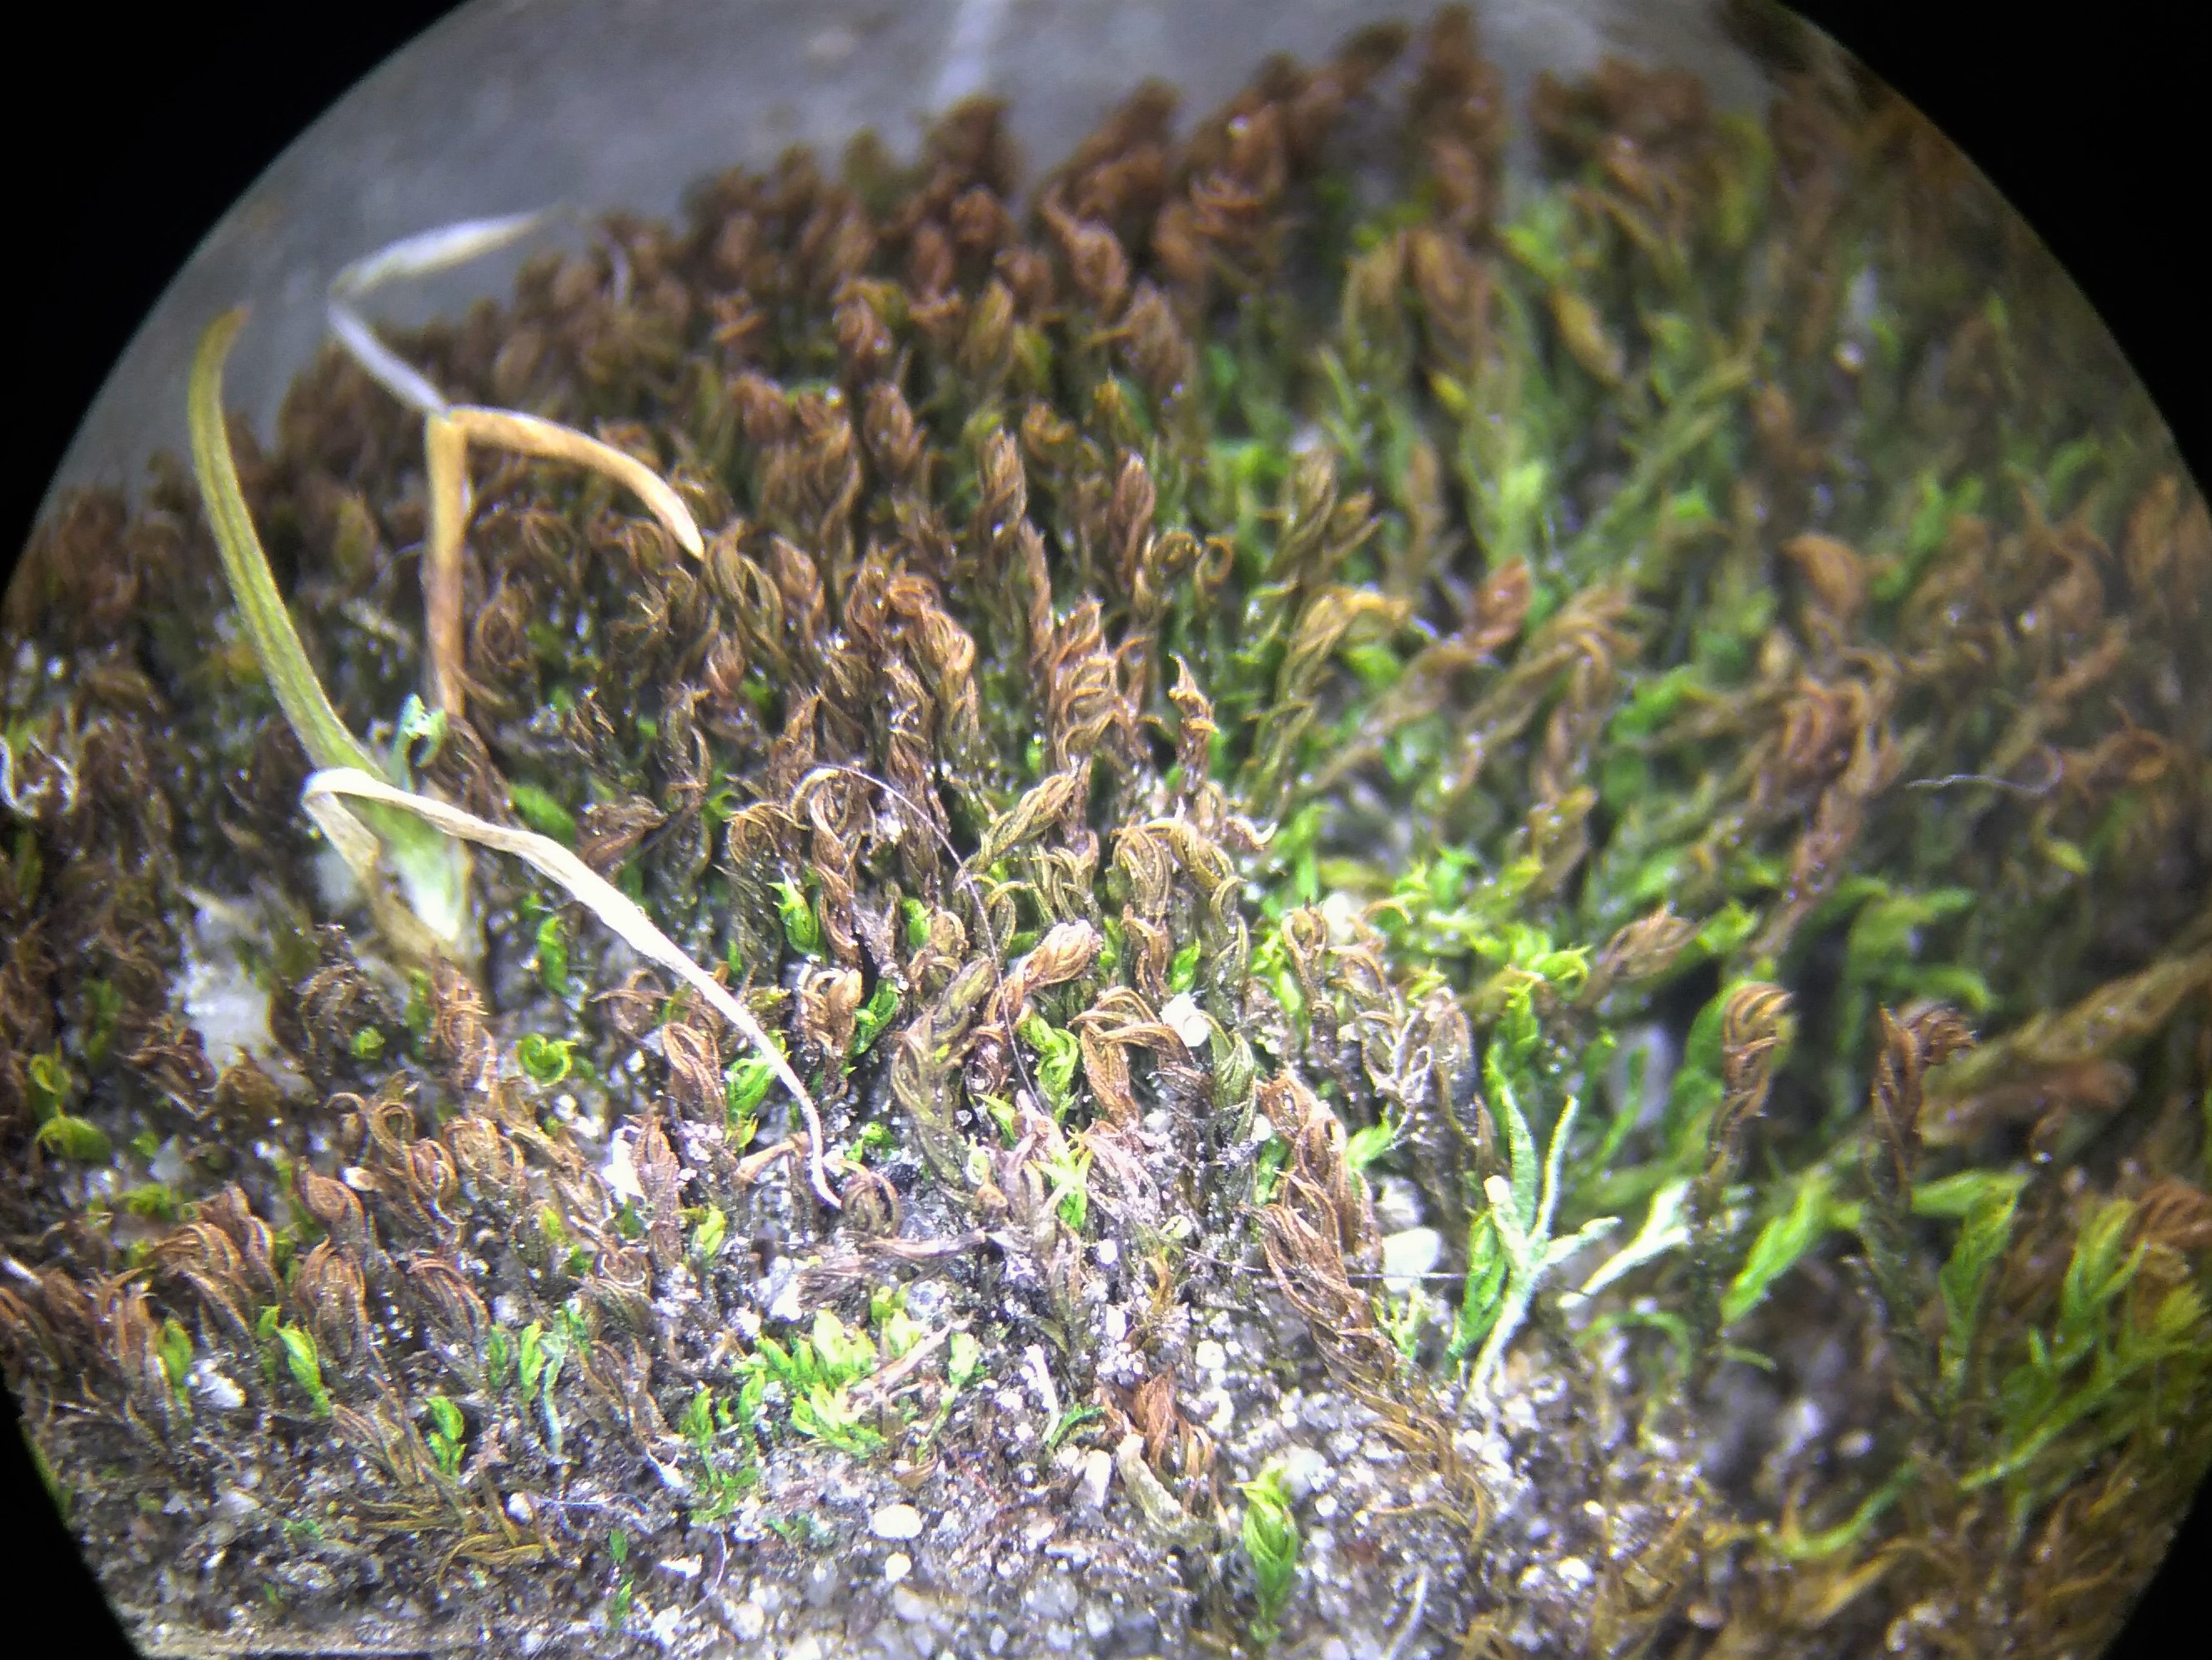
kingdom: Plantae
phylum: Bryophyta
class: Bryopsida
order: Pottiales
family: Pottiaceae
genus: Pseudocrossidium
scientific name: Pseudocrossidium hornschuchianum
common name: Spids rullerand
